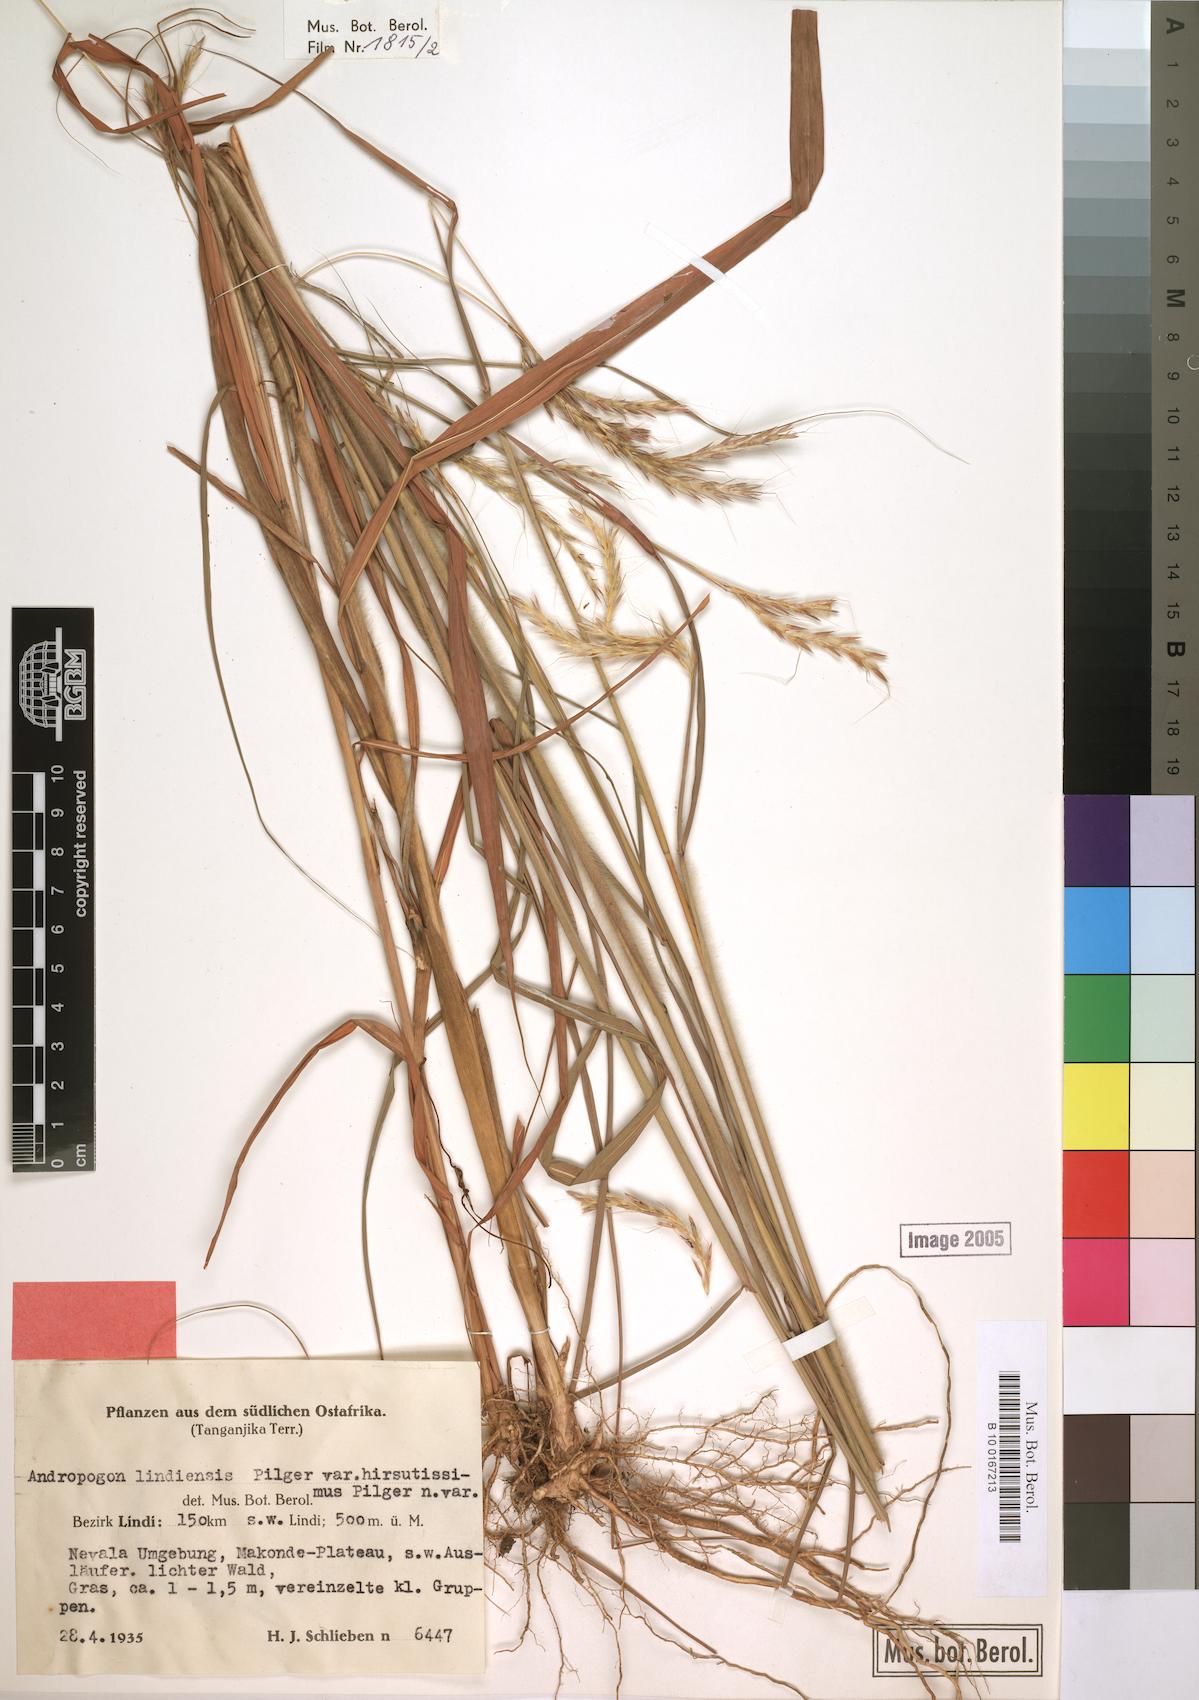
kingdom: Plantae
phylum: Tracheophyta
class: Liliopsida
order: Poales
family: Poaceae
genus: Andropogon
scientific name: Andropogon chinensis
